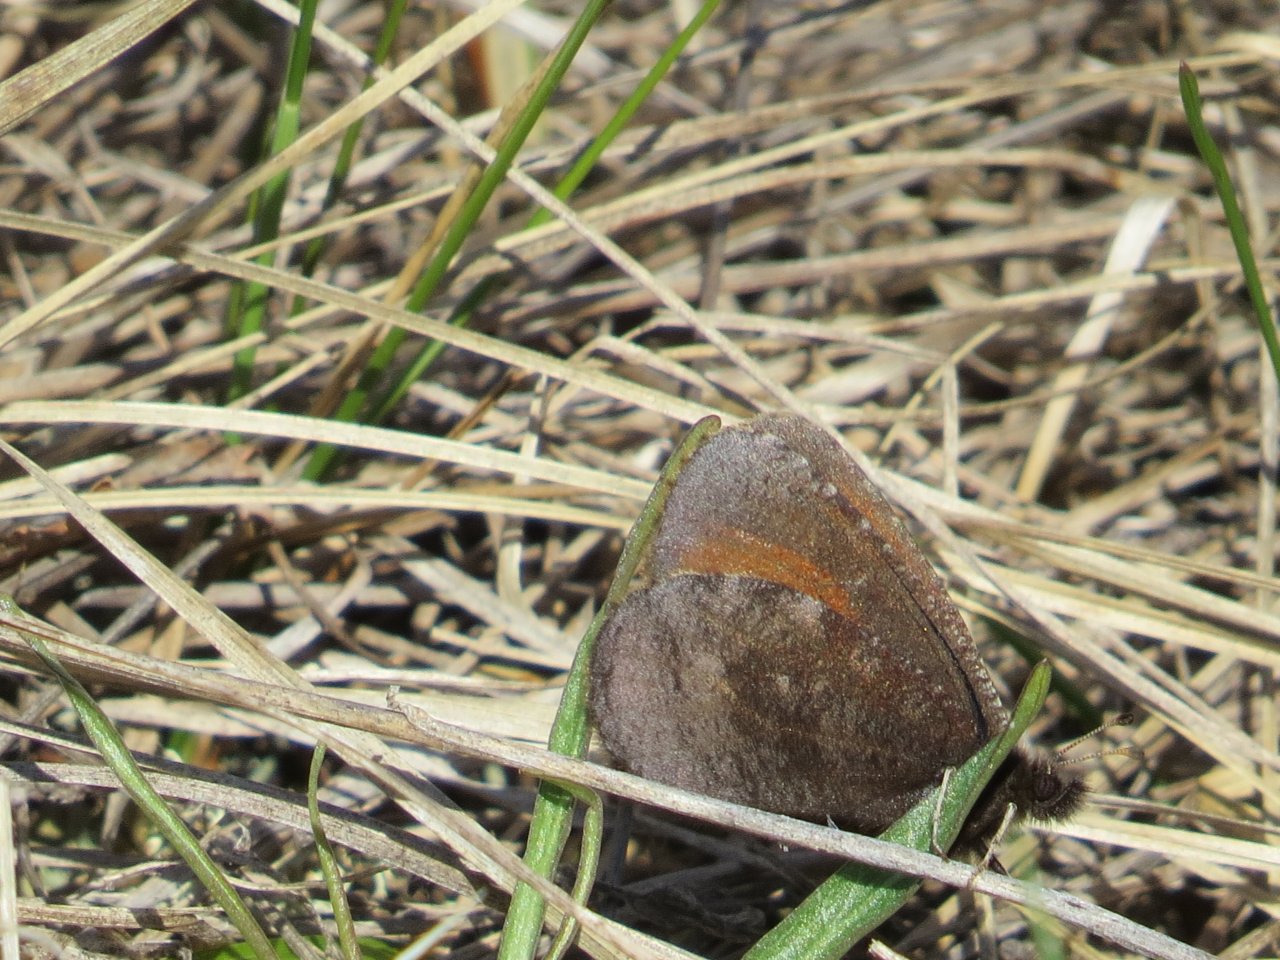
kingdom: Animalia
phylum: Arthropoda
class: Insecta
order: Lepidoptera
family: Nymphalidae
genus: Erebia
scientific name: Erebia discoidalis
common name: Red-disked Alpine
